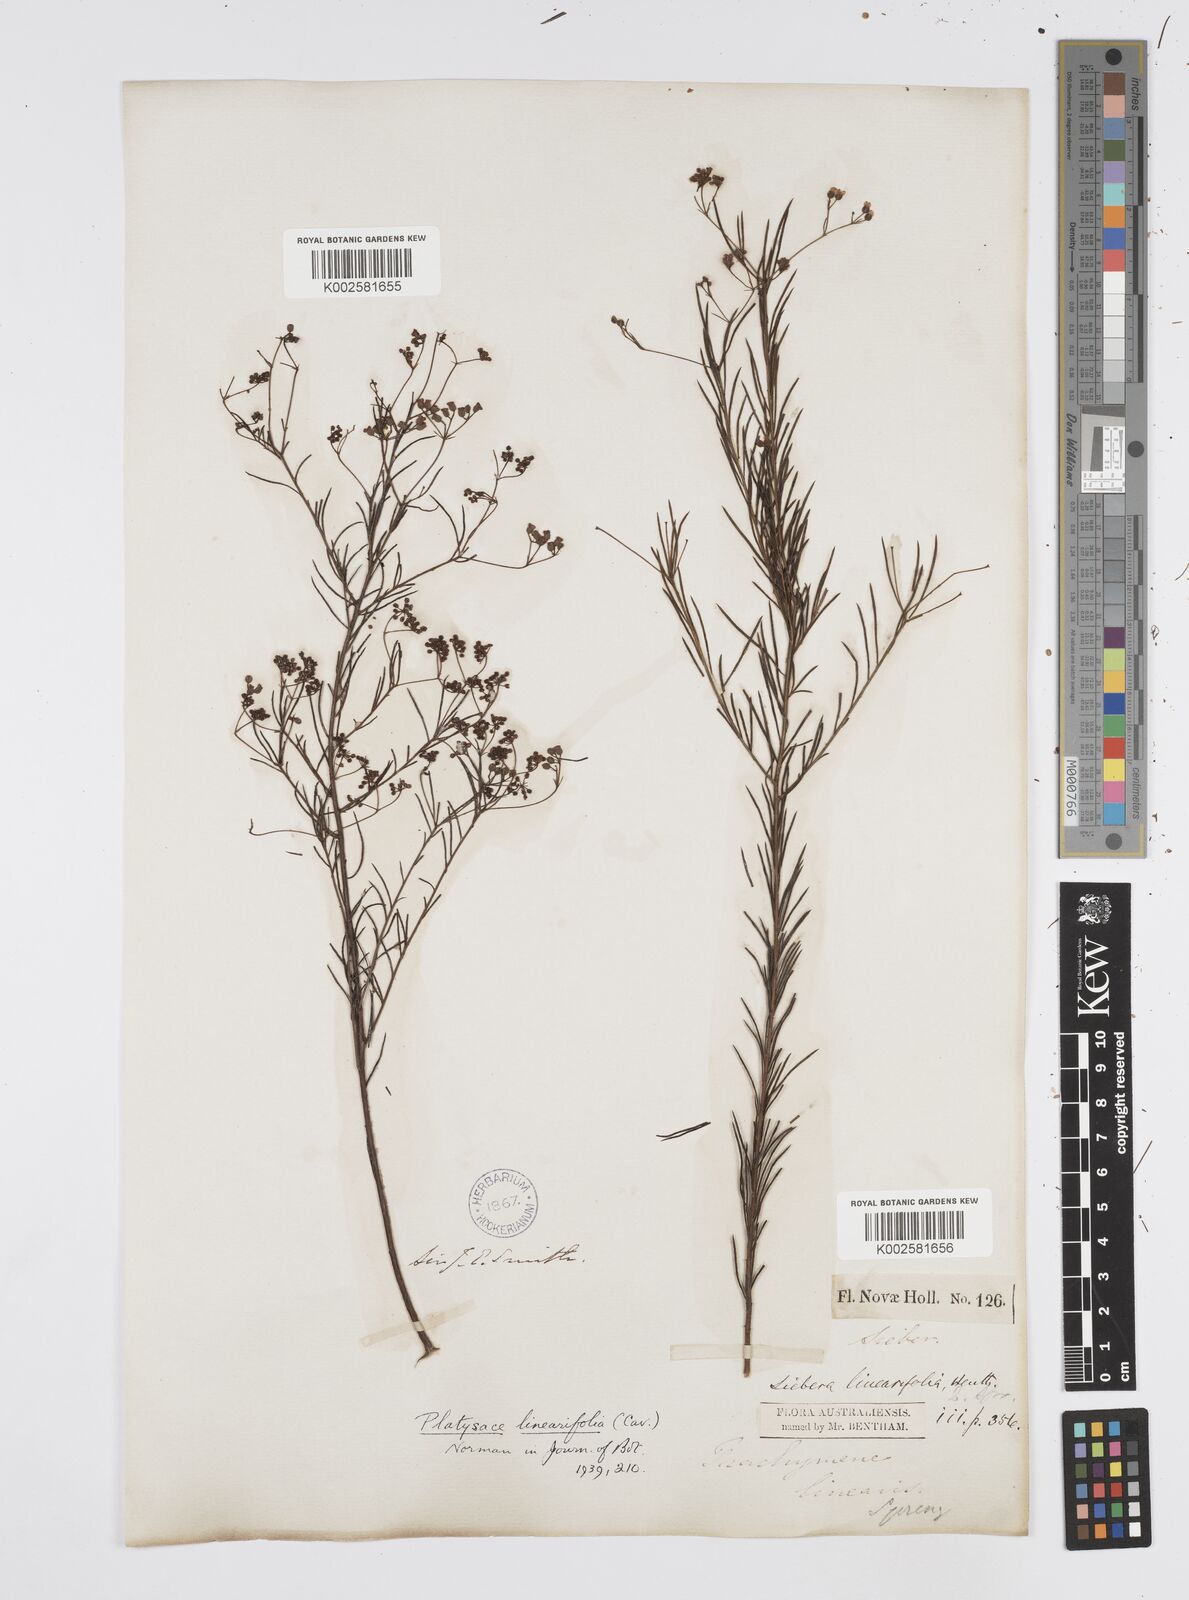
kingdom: Plantae
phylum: Tracheophyta
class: Magnoliopsida
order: Apiales
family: Apiaceae
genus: Platysace
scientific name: Platysace linearifolia
